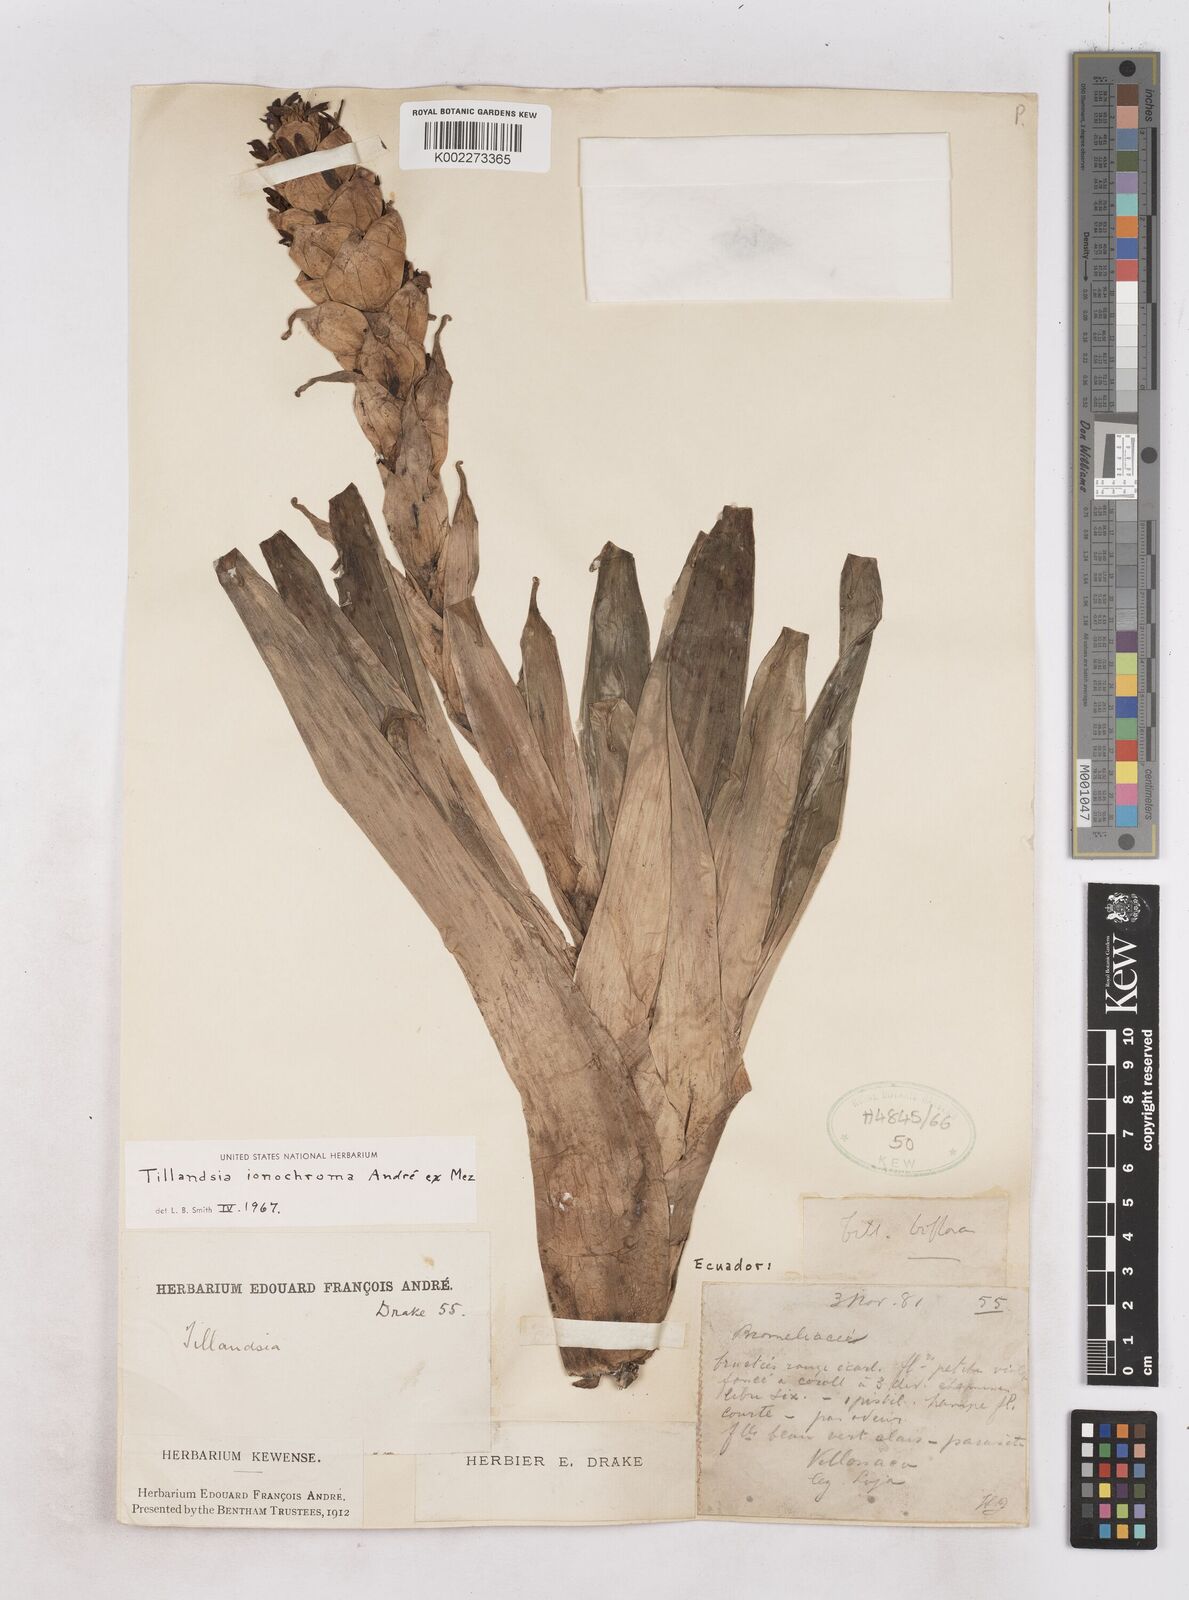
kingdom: Plantae
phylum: Tracheophyta
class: Liliopsida
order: Poales
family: Bromeliaceae
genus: Tillandsia
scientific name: Tillandsia ionochroma
